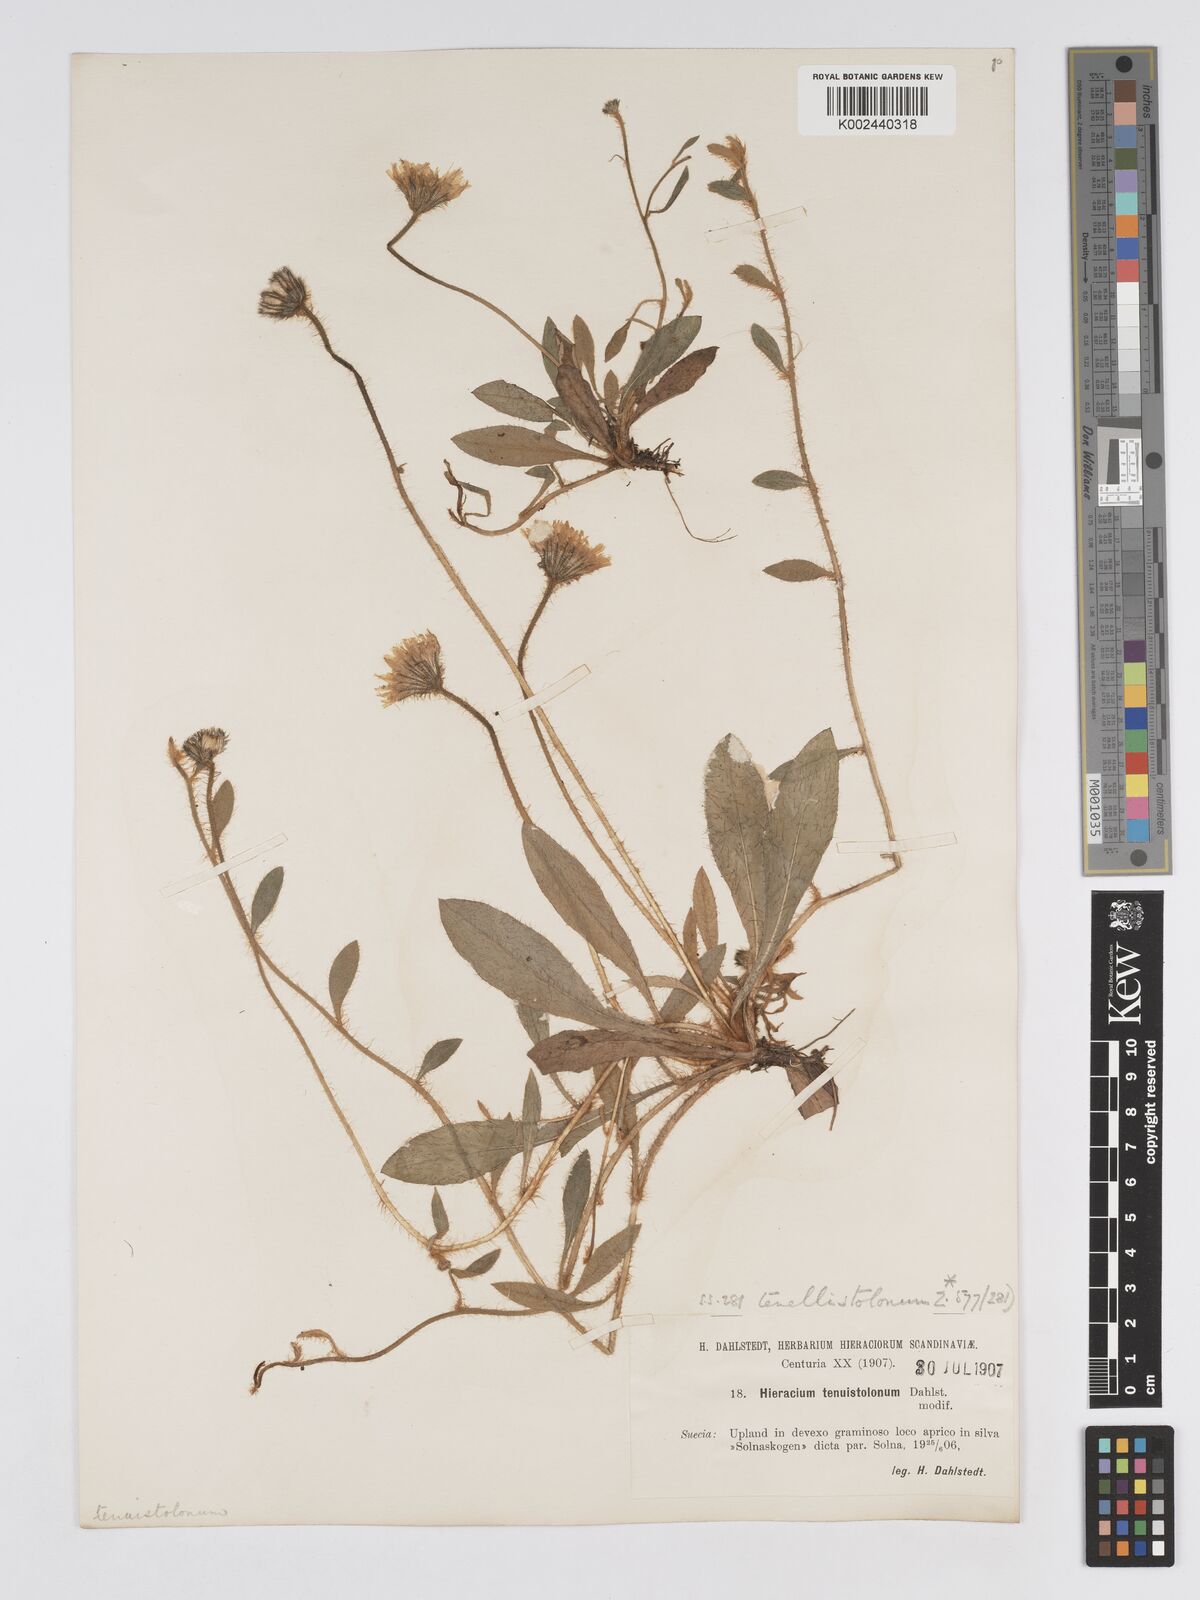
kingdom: Plantae
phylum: Tracheophyta
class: Magnoliopsida
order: Asterales
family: Asteraceae
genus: Pilosella
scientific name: Pilosella officinarum
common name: Mouse-ear hawkweed
